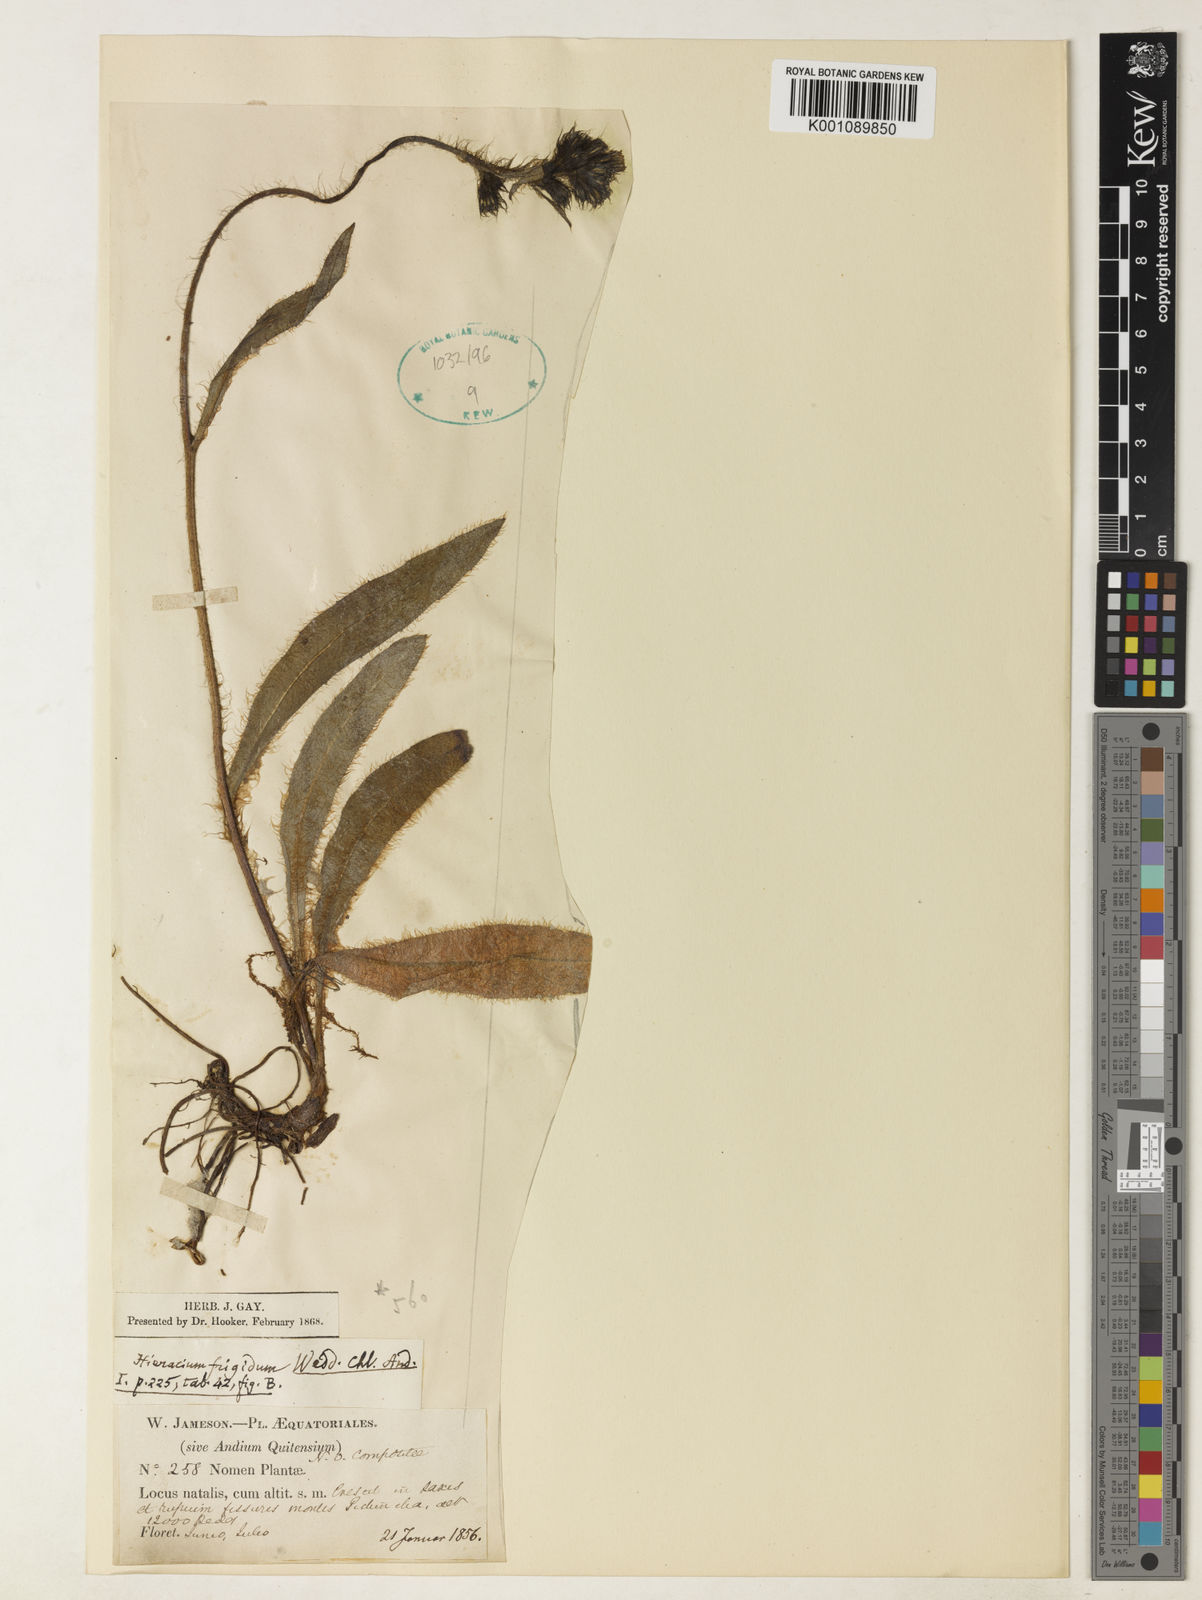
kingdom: Plantae
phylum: Tracheophyta
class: Magnoliopsida
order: Asterales
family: Asteraceae
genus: Hieracium
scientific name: Hieracium jubatum
